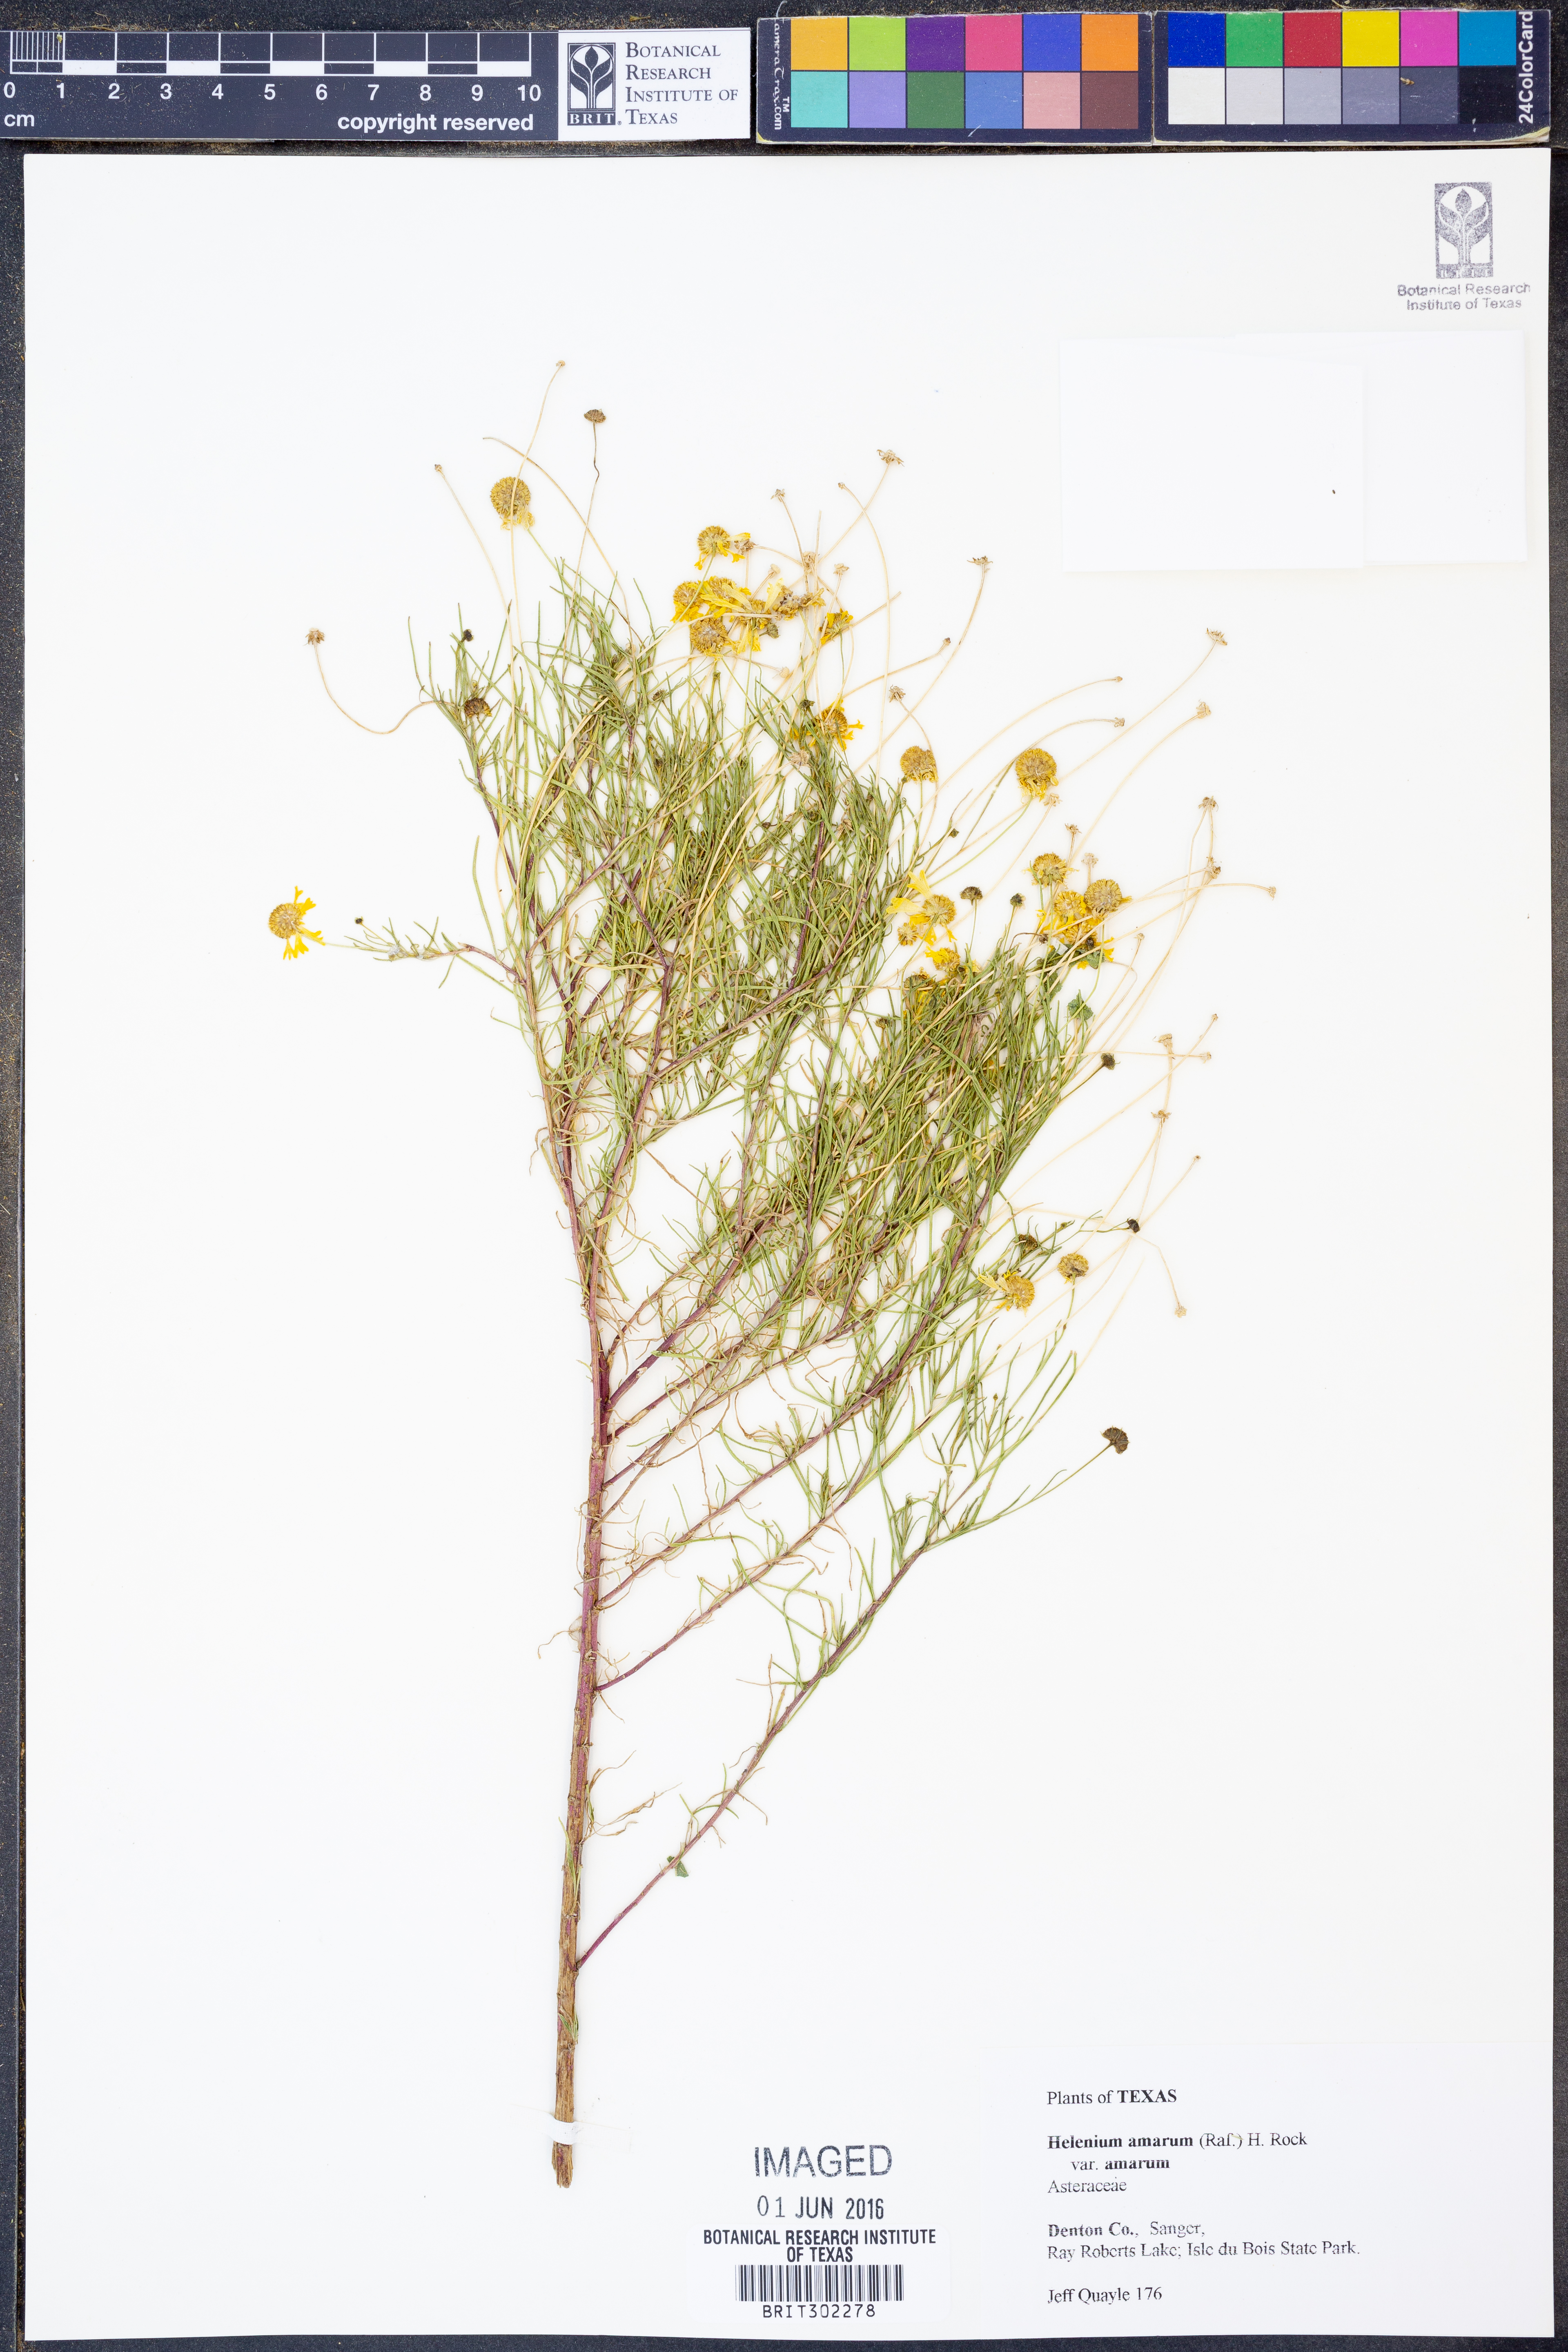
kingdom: Plantae
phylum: Tracheophyta
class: Magnoliopsida
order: Asterales
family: Asteraceae
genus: Helenium
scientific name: Helenium amarum
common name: Bitter sneezeweed
